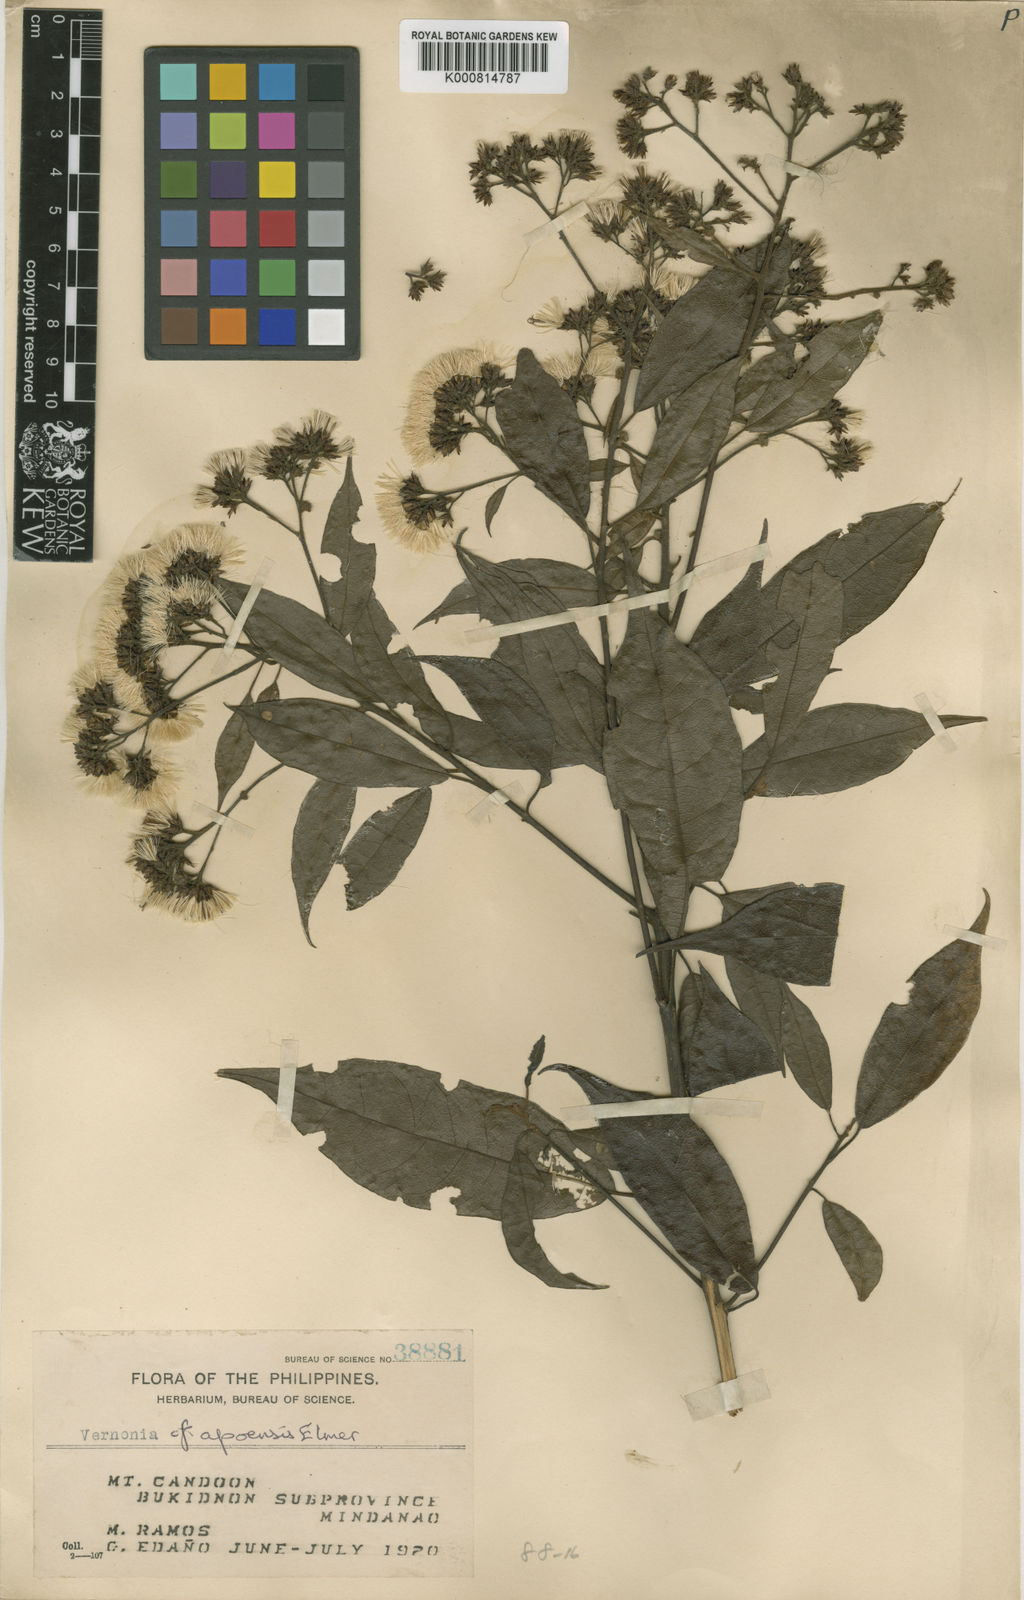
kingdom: Plantae
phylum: Tracheophyta
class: Magnoliopsida
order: Asterales
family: Asteraceae
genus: Vernonia
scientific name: Vernonia apoensis
